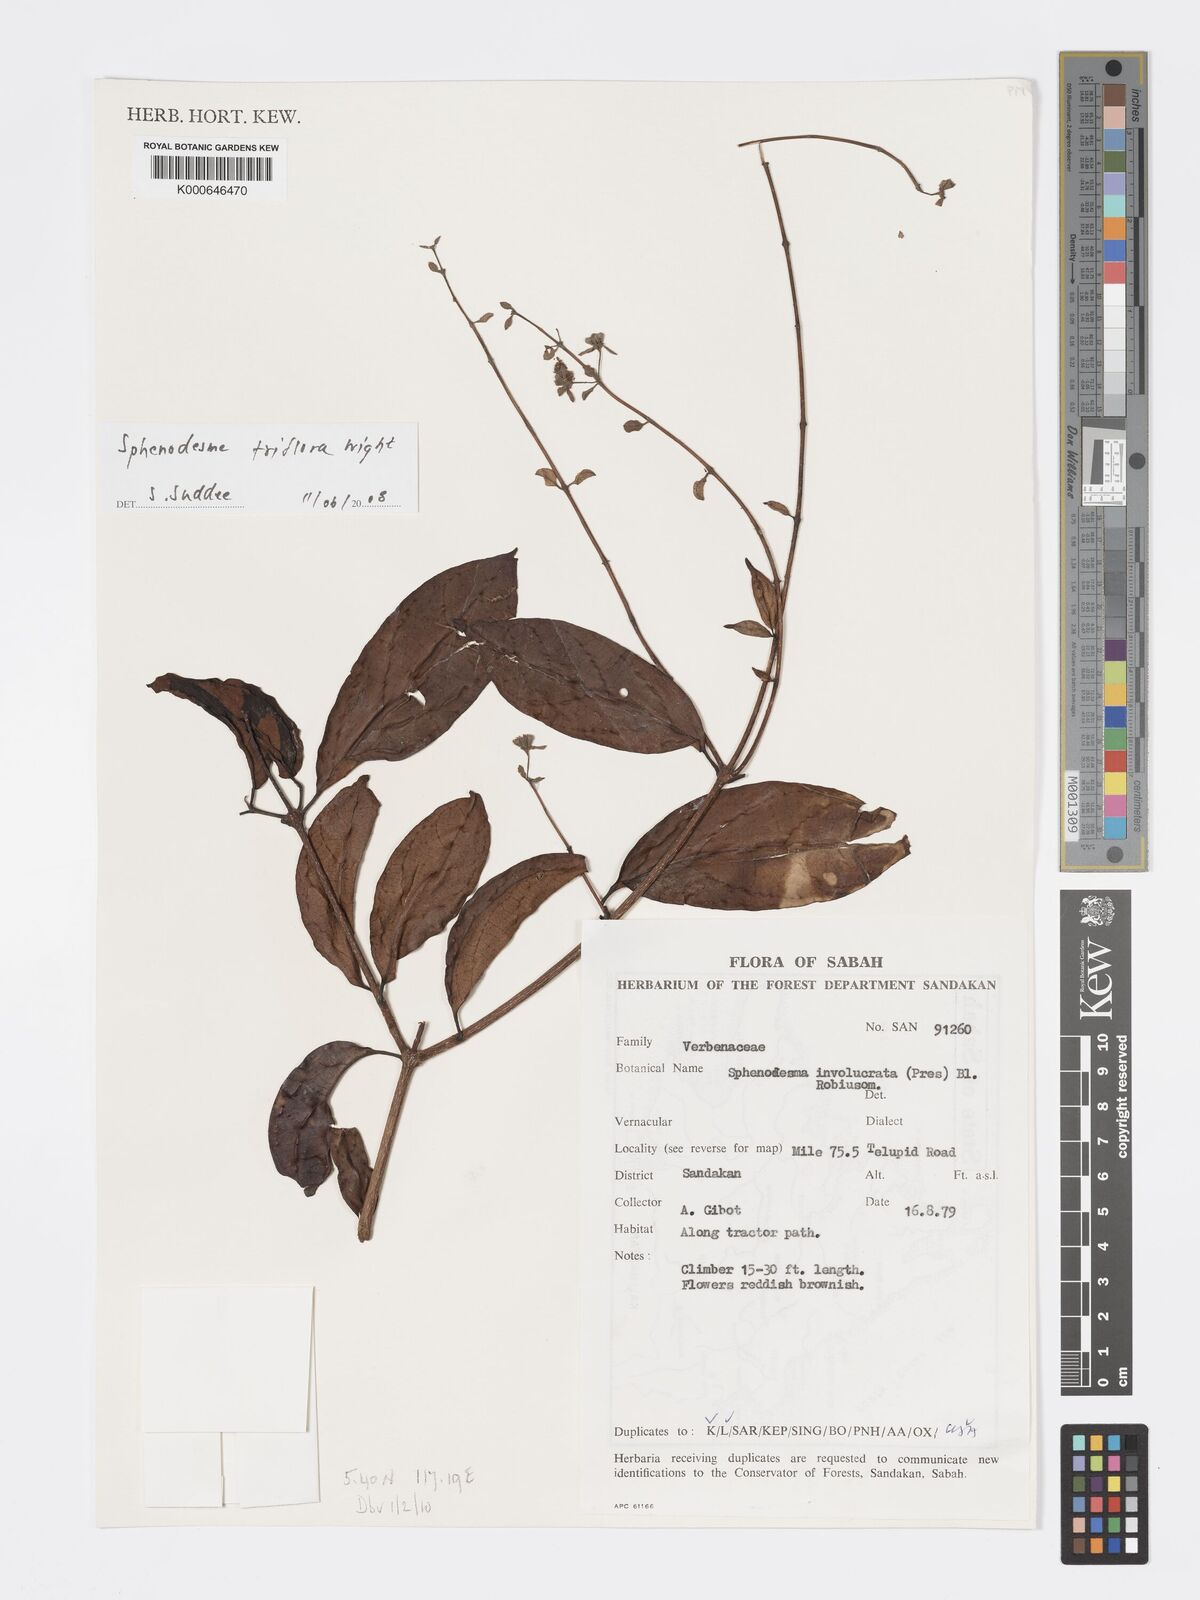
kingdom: Plantae
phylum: Tracheophyta
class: Magnoliopsida
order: Lamiales
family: Lamiaceae
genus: Sphenodesme
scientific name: Sphenodesme triflora
